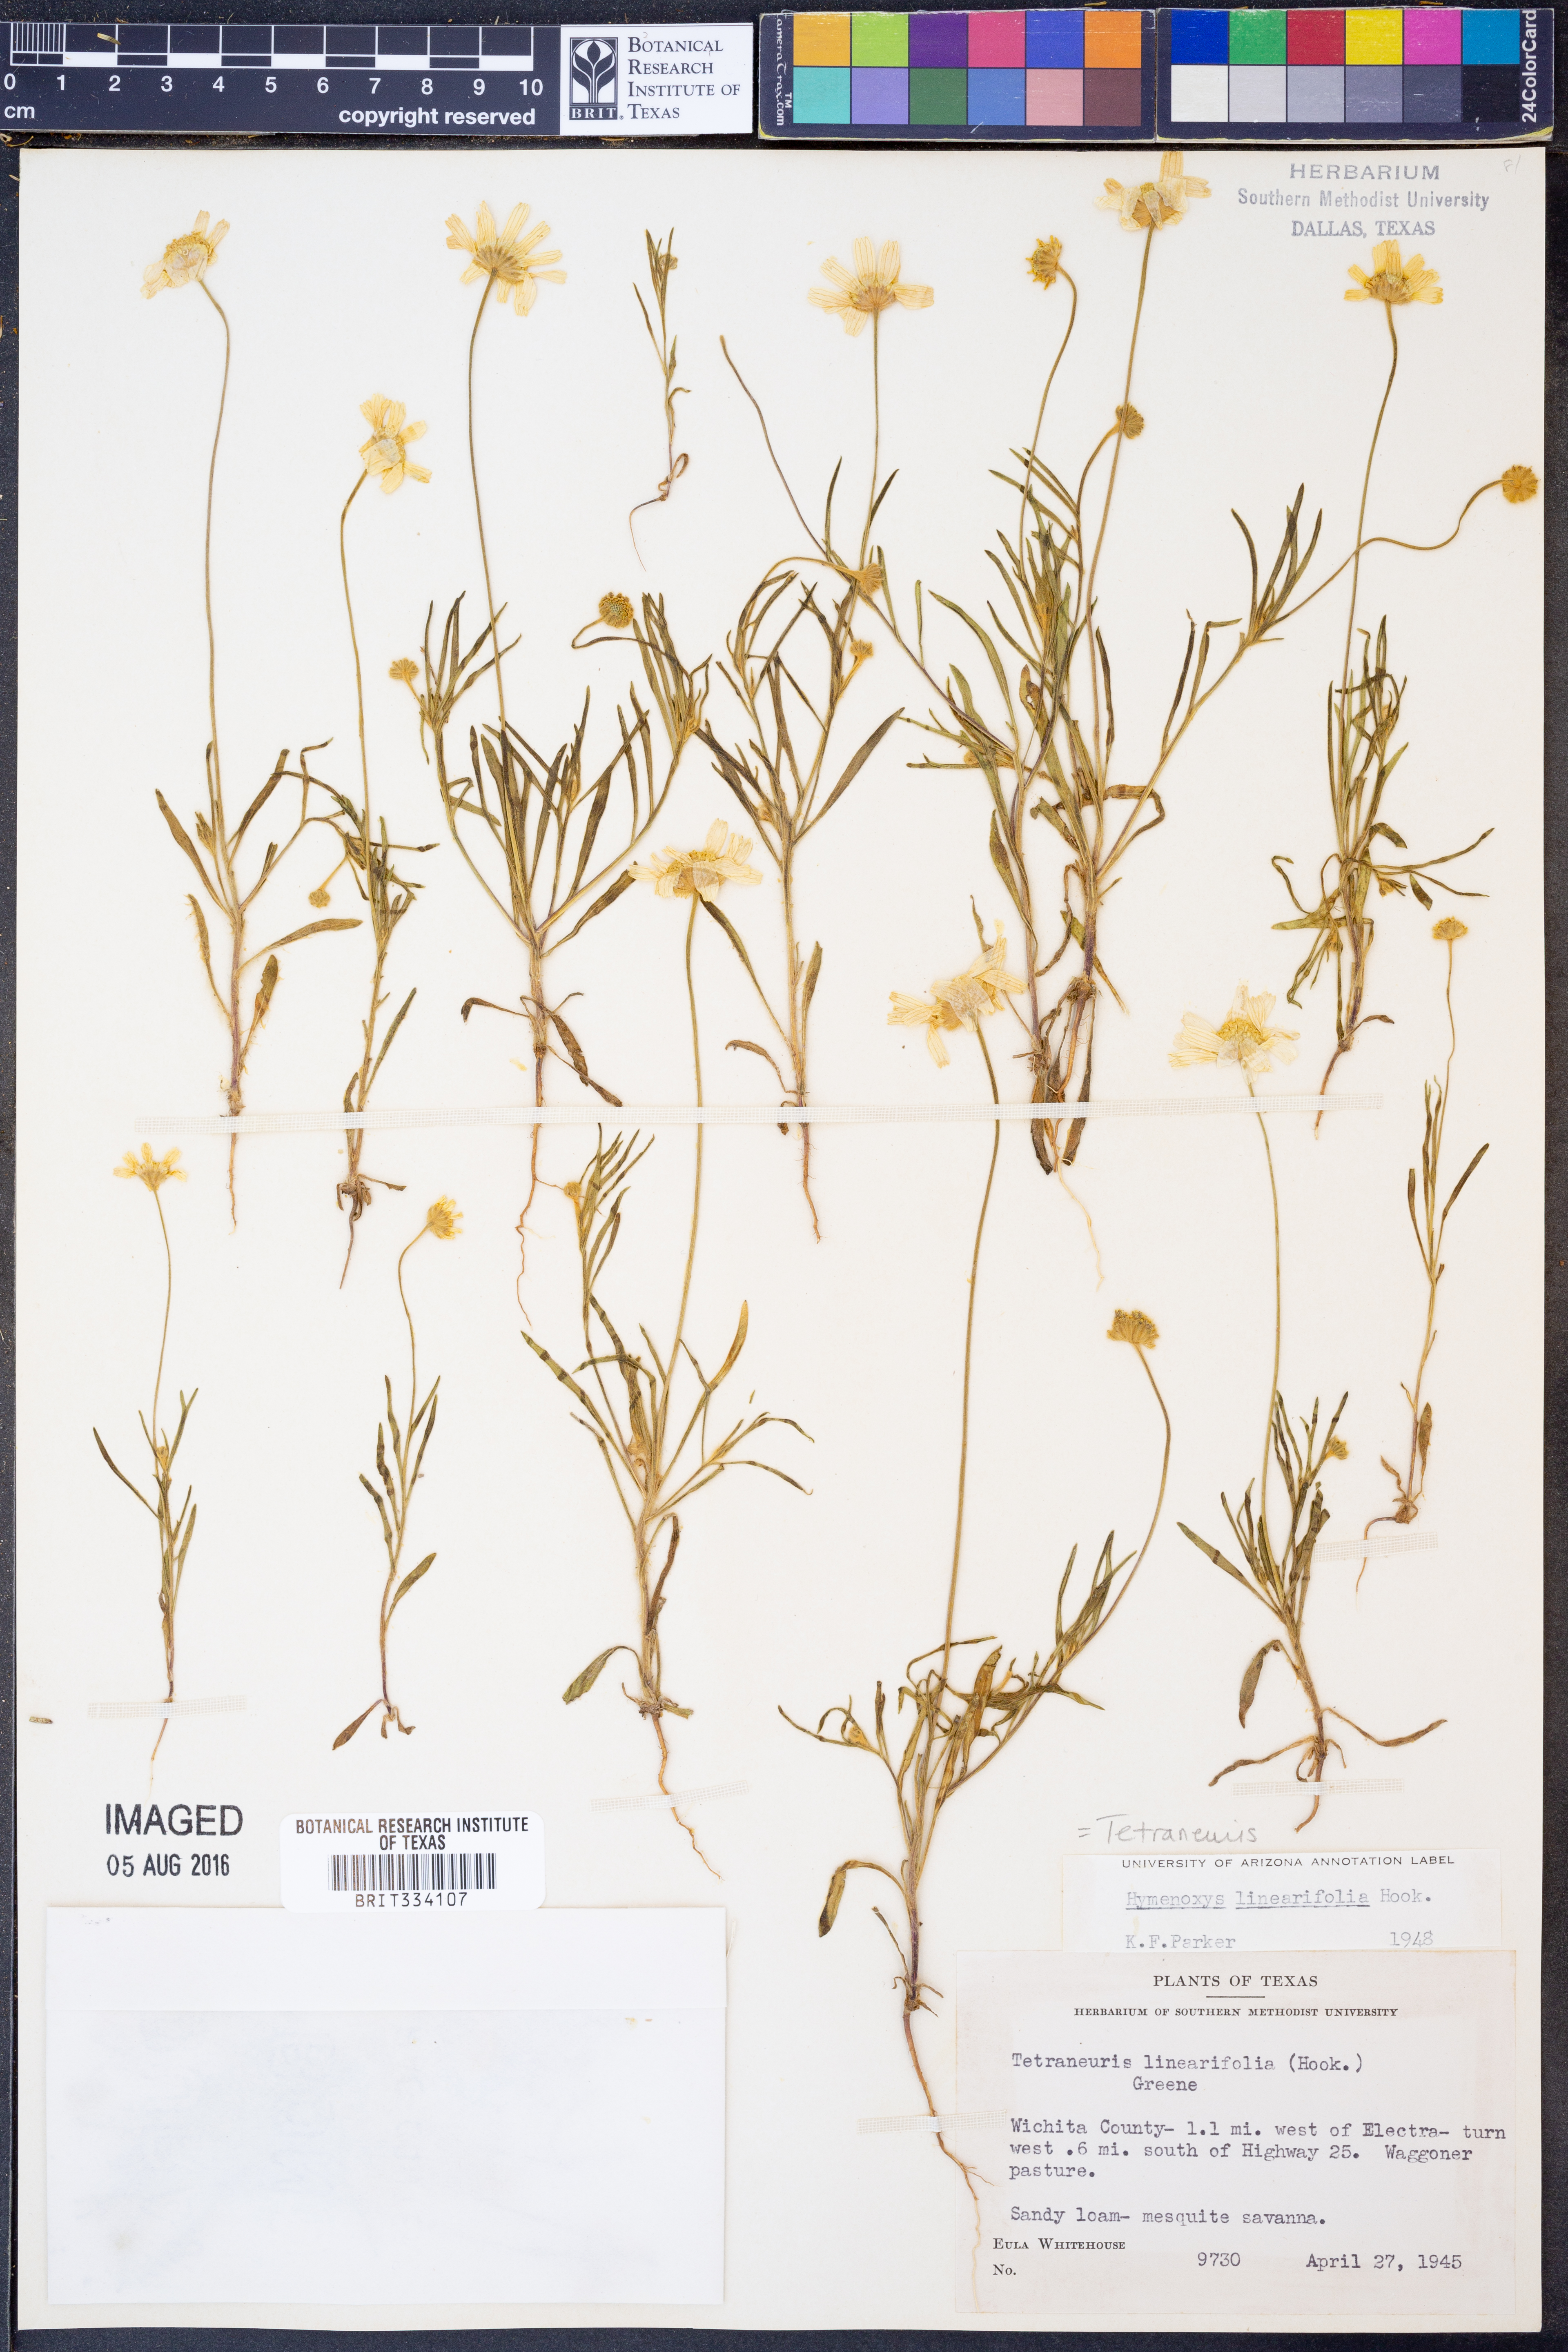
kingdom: Plantae
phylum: Tracheophyta
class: Magnoliopsida
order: Asterales
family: Asteraceae
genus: Tetraneuris
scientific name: Tetraneuris linearifolia
